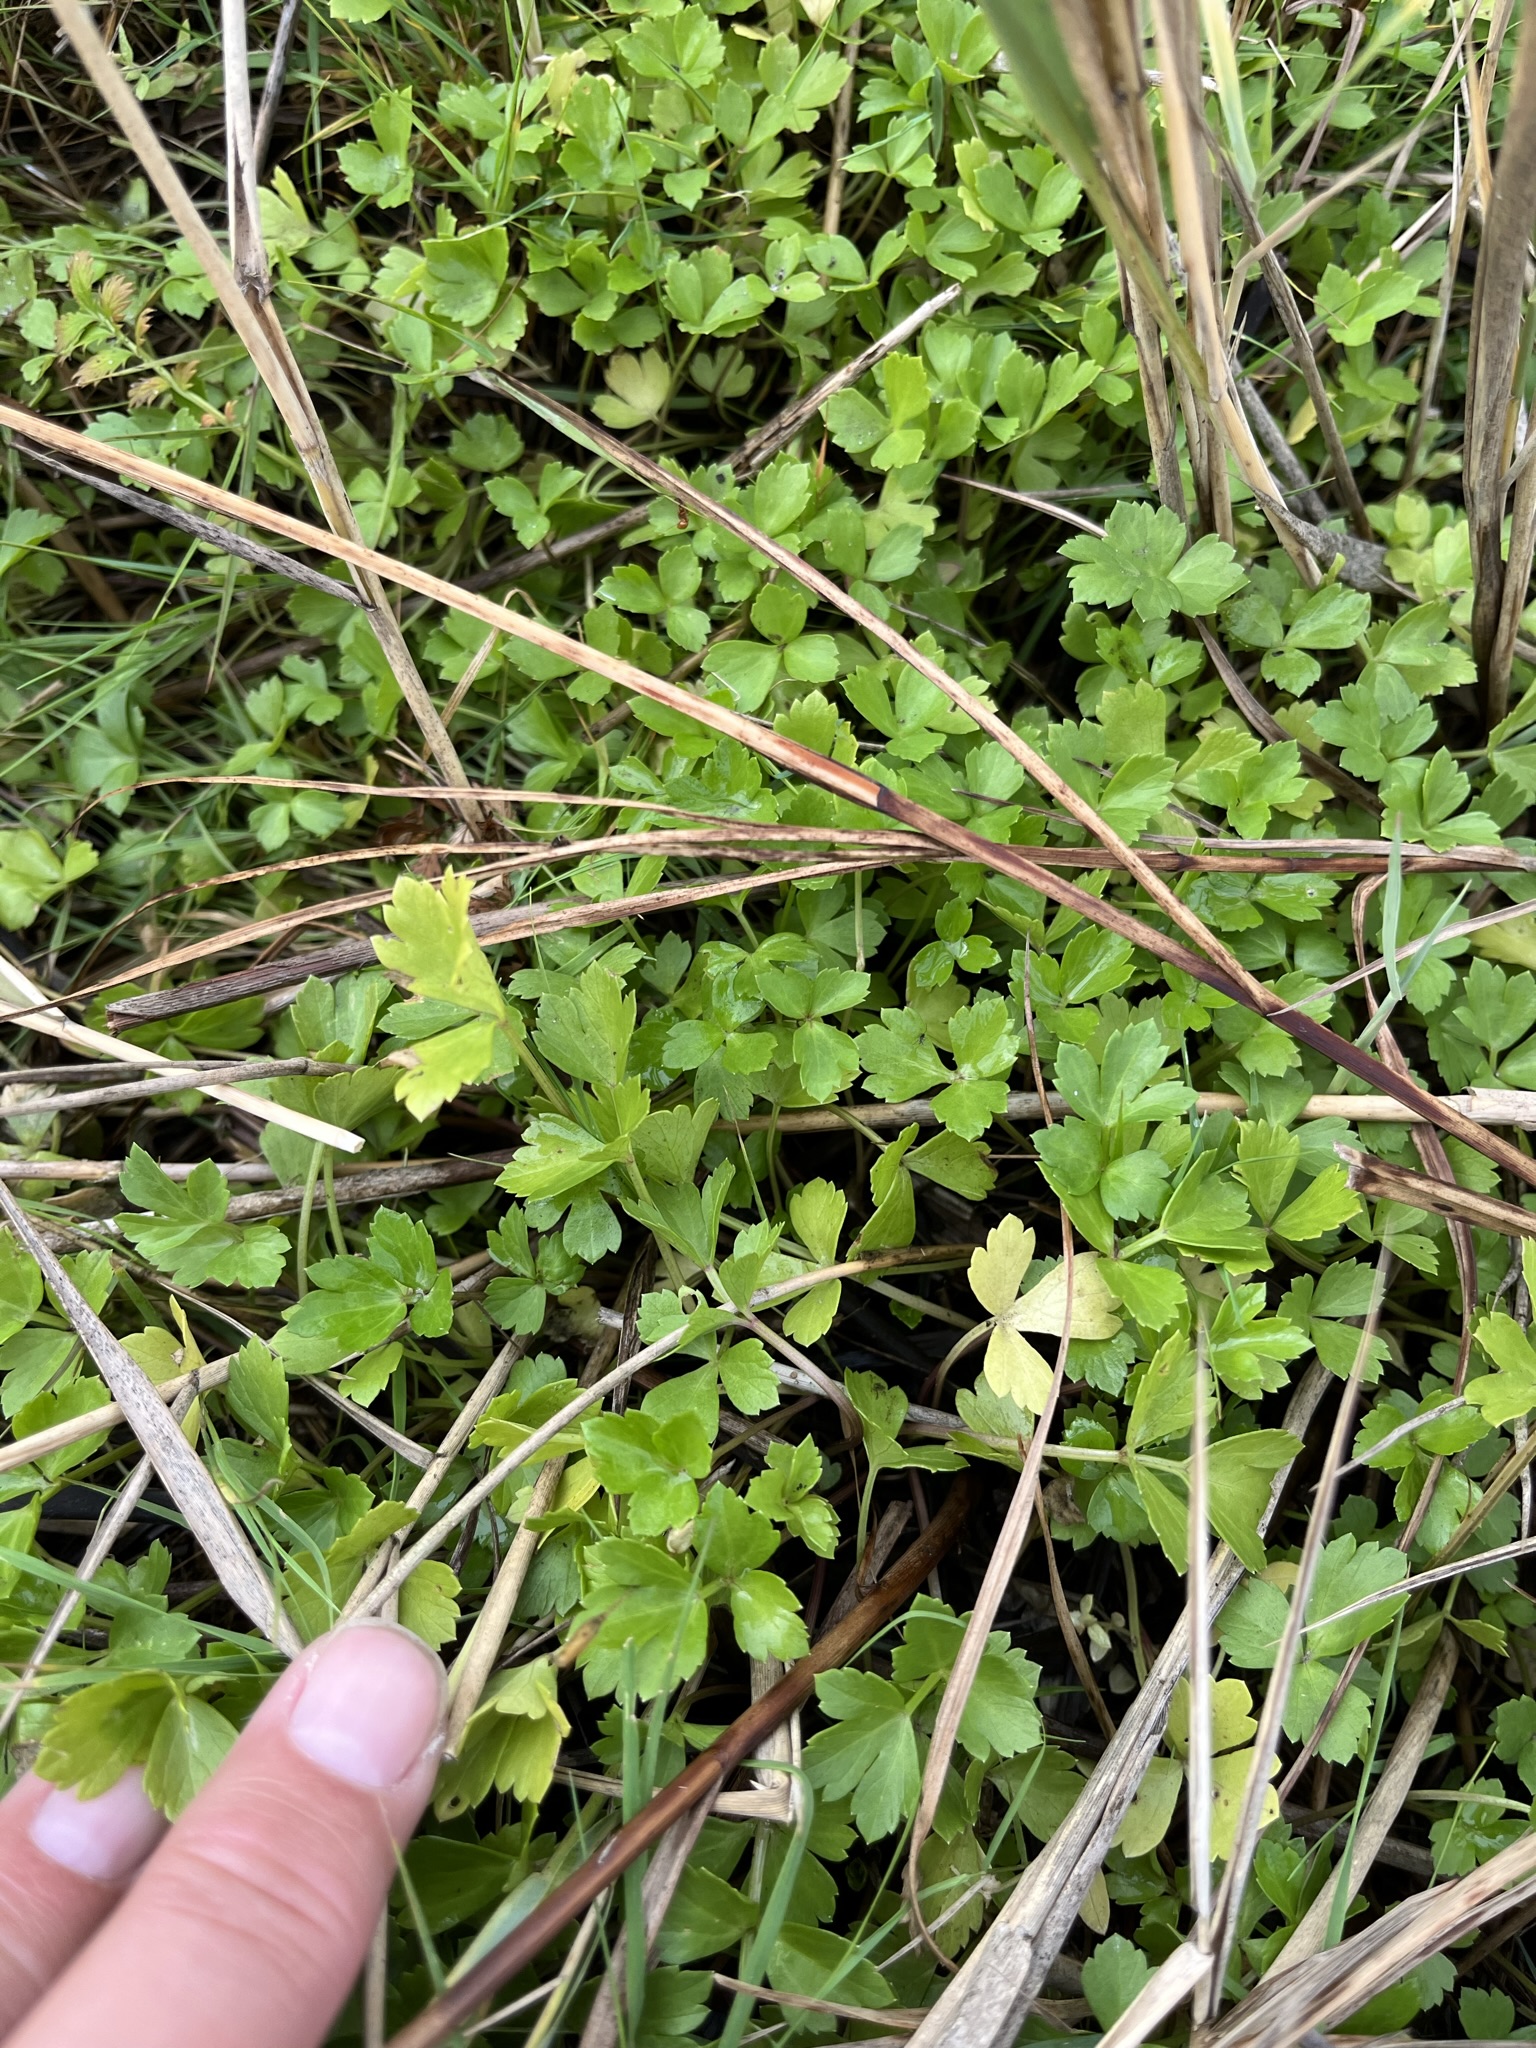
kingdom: Plantae
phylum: Tracheophyta
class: Magnoliopsida
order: Apiales
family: Apiaceae
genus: Apium
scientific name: Apium graveolens
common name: Vild selleri
